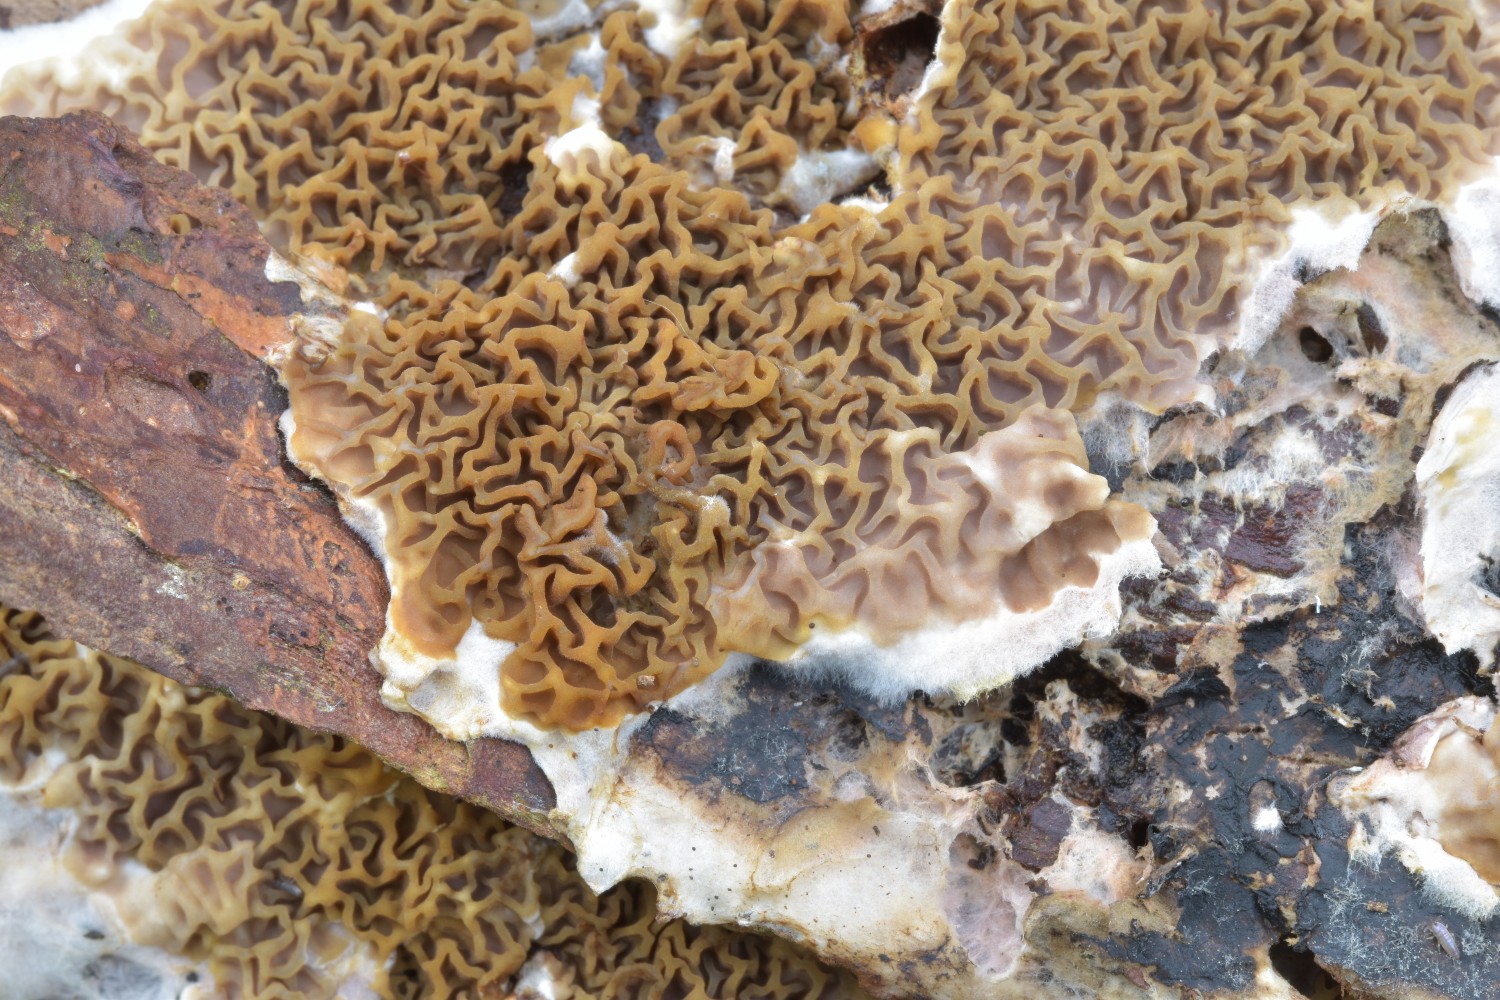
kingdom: Fungi
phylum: Basidiomycota
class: Agaricomycetes
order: Boletales
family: Serpulaceae
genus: Serpula
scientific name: Serpula himantioides
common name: tyndkødet hussvamp
